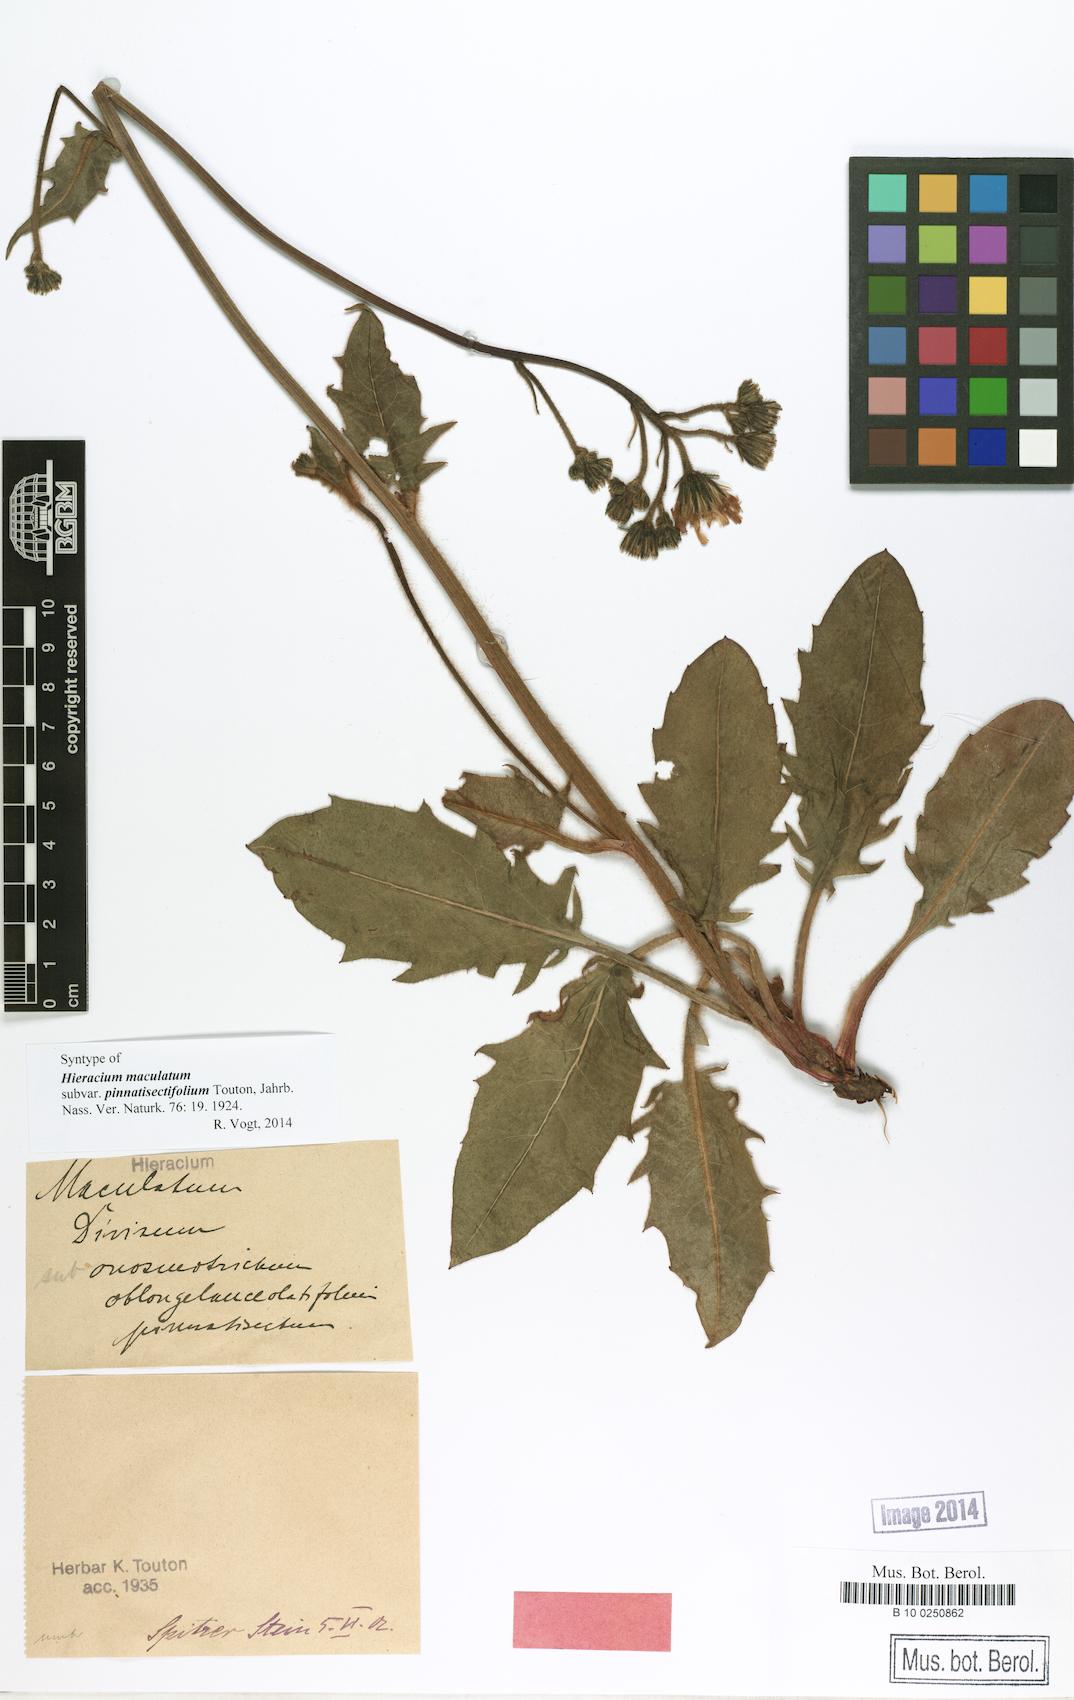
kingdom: Plantae
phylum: Tracheophyta
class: Magnoliopsida
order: Asterales
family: Asteraceae
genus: Hieracium
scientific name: Hieracium maculatum
